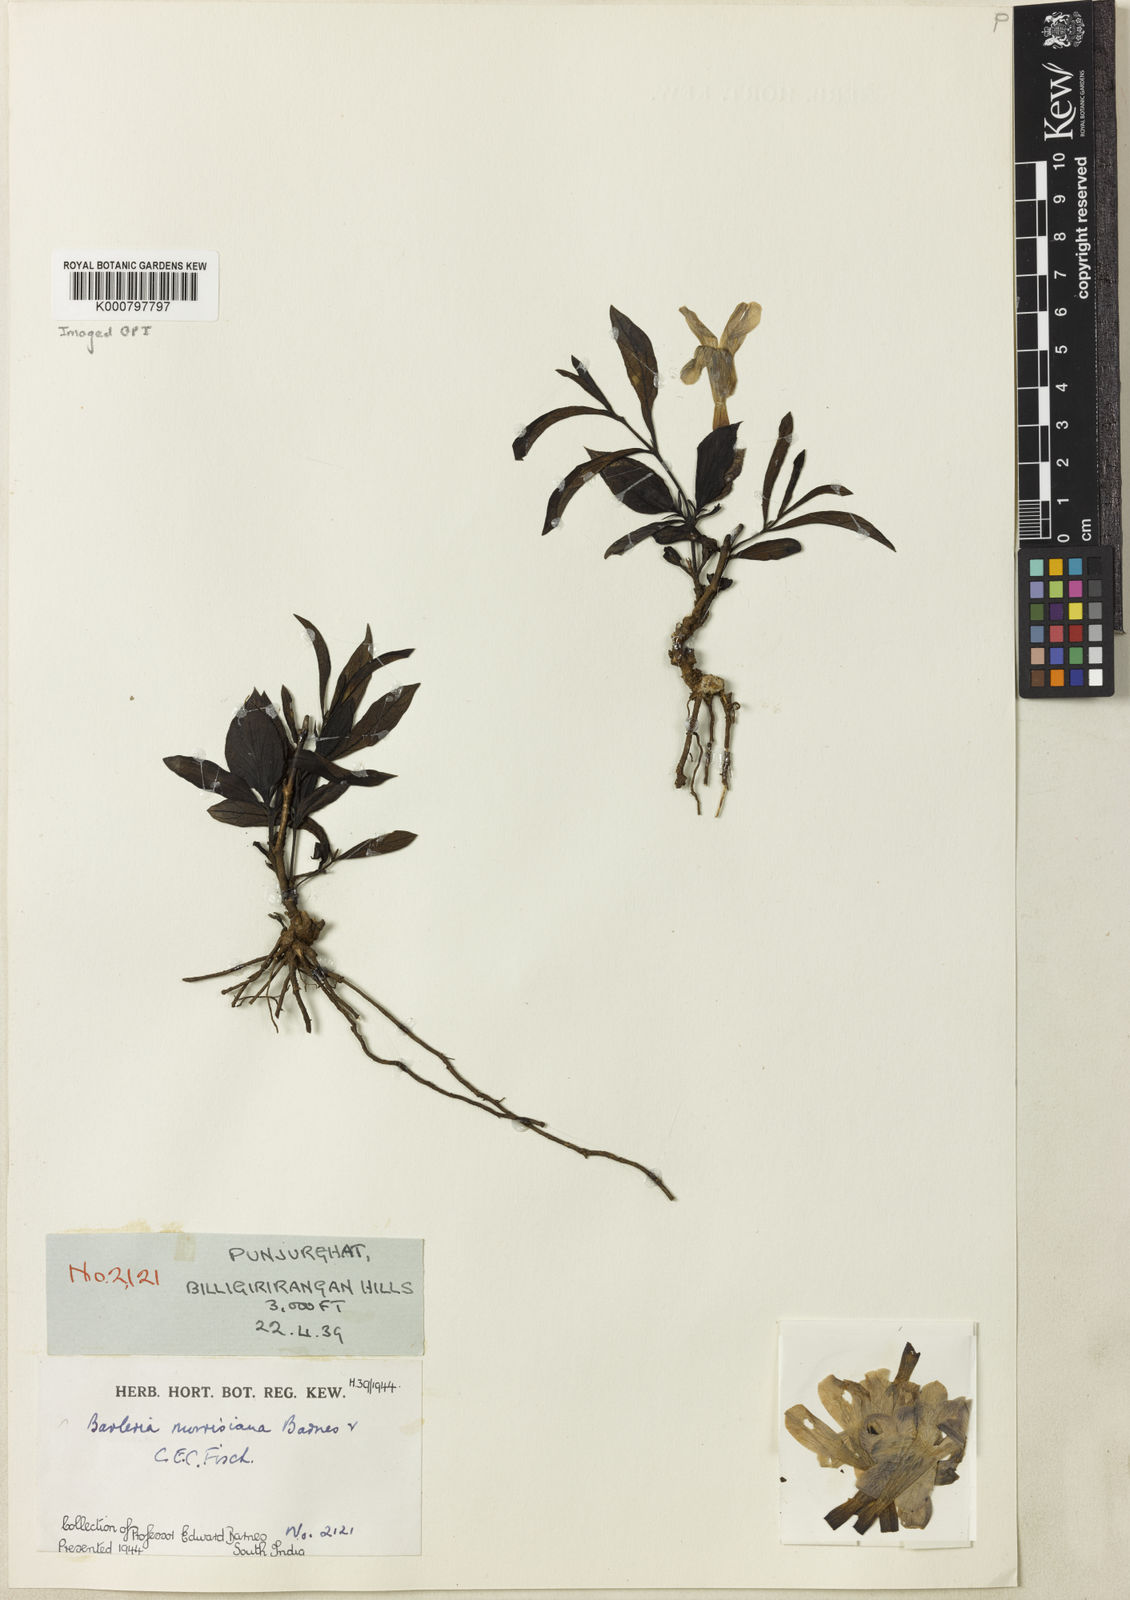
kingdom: Plantae
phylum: Tracheophyta
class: Magnoliopsida
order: Lamiales
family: Acanthaceae
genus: Barleria
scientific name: Barleria montana
